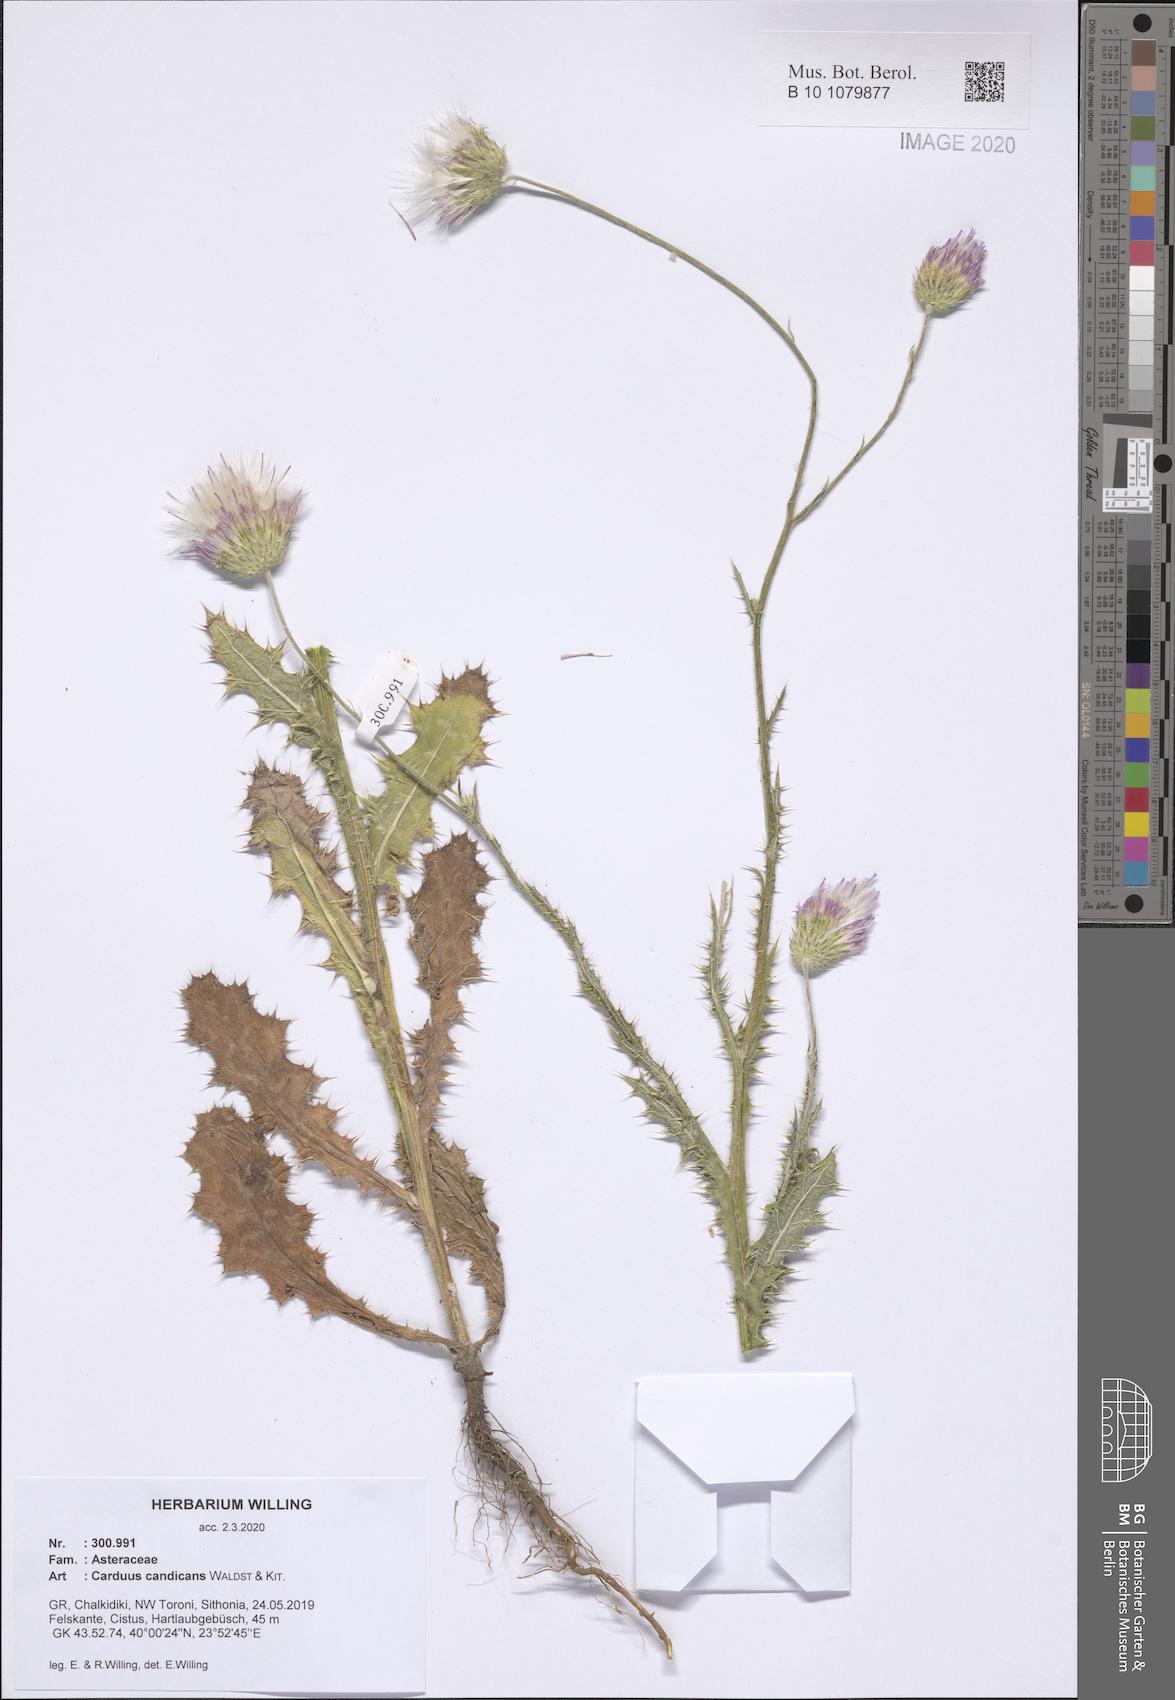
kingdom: Plantae
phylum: Tracheophyta
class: Magnoliopsida
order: Asterales
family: Asteraceae
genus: Carduus
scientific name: Carduus candicans
